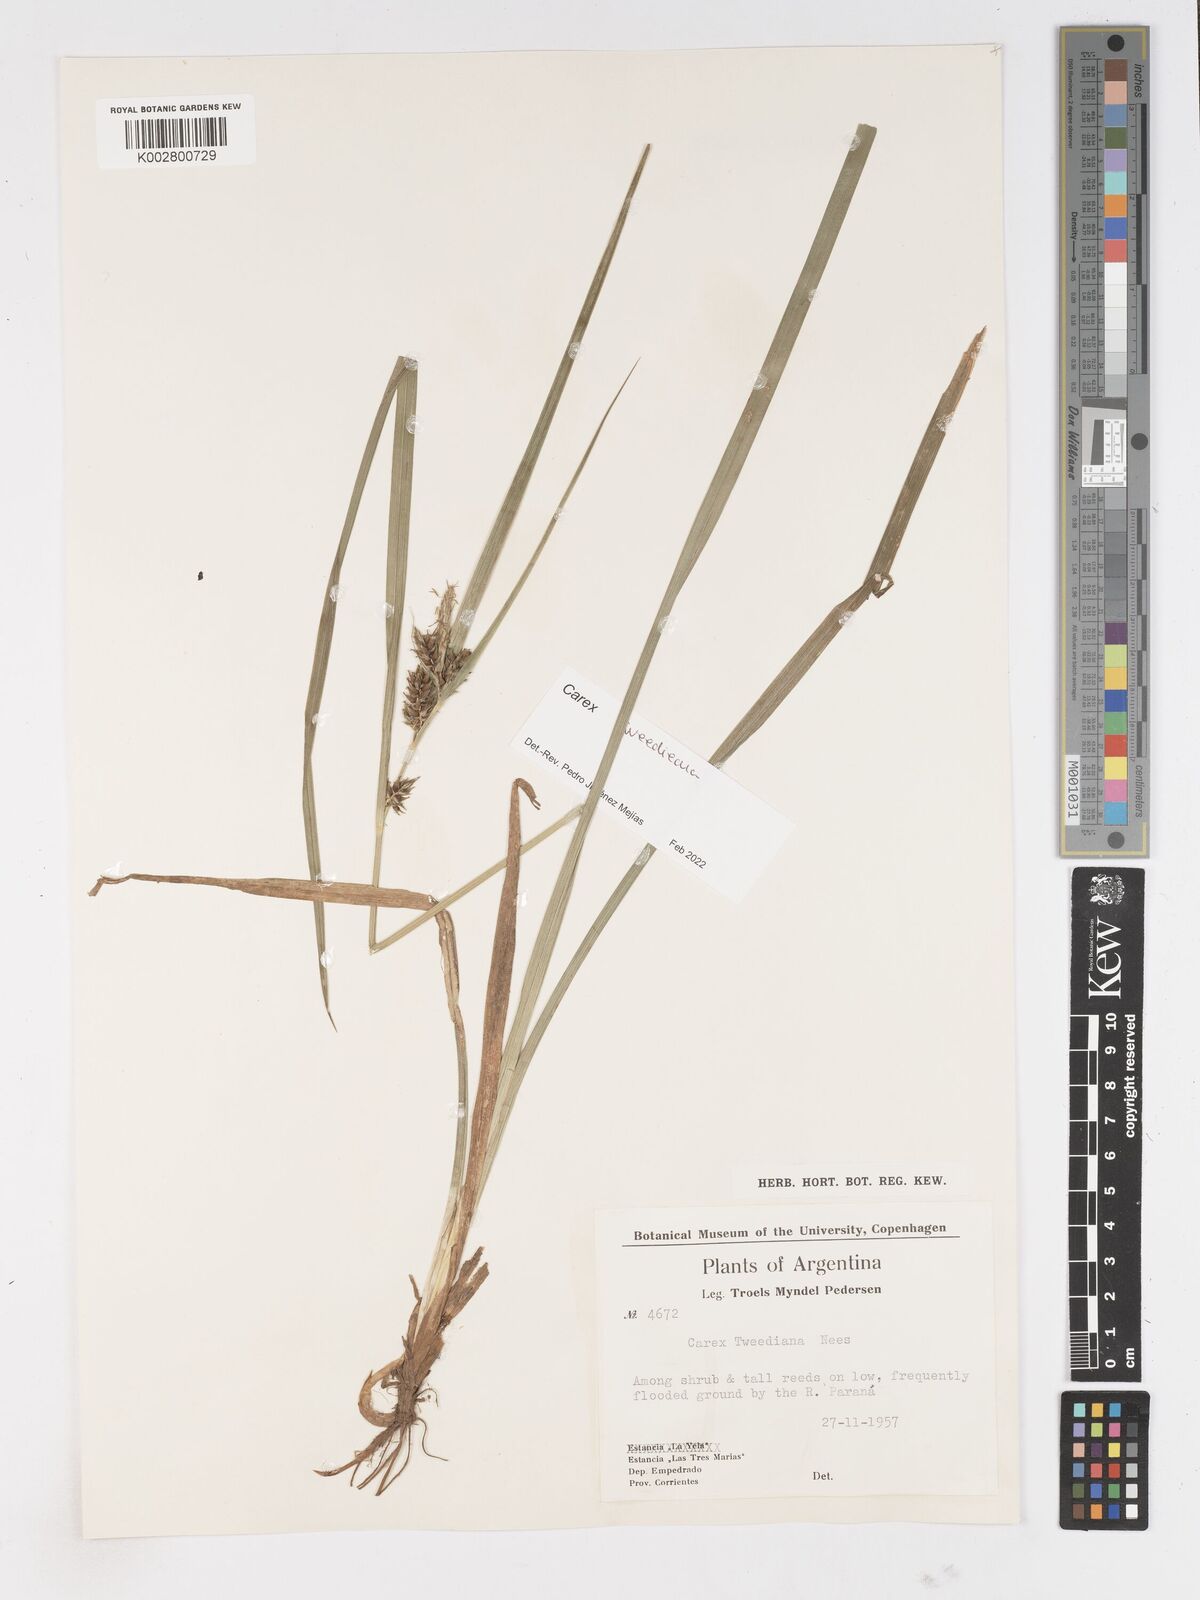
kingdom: Plantae
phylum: Tracheophyta
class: Liliopsida
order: Poales
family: Cyperaceae
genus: Carex
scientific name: Carex tweedieana
